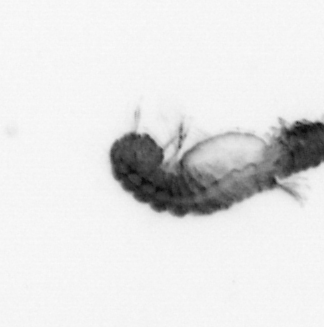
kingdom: Animalia
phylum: Annelida
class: Polychaeta
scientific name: Polychaeta
